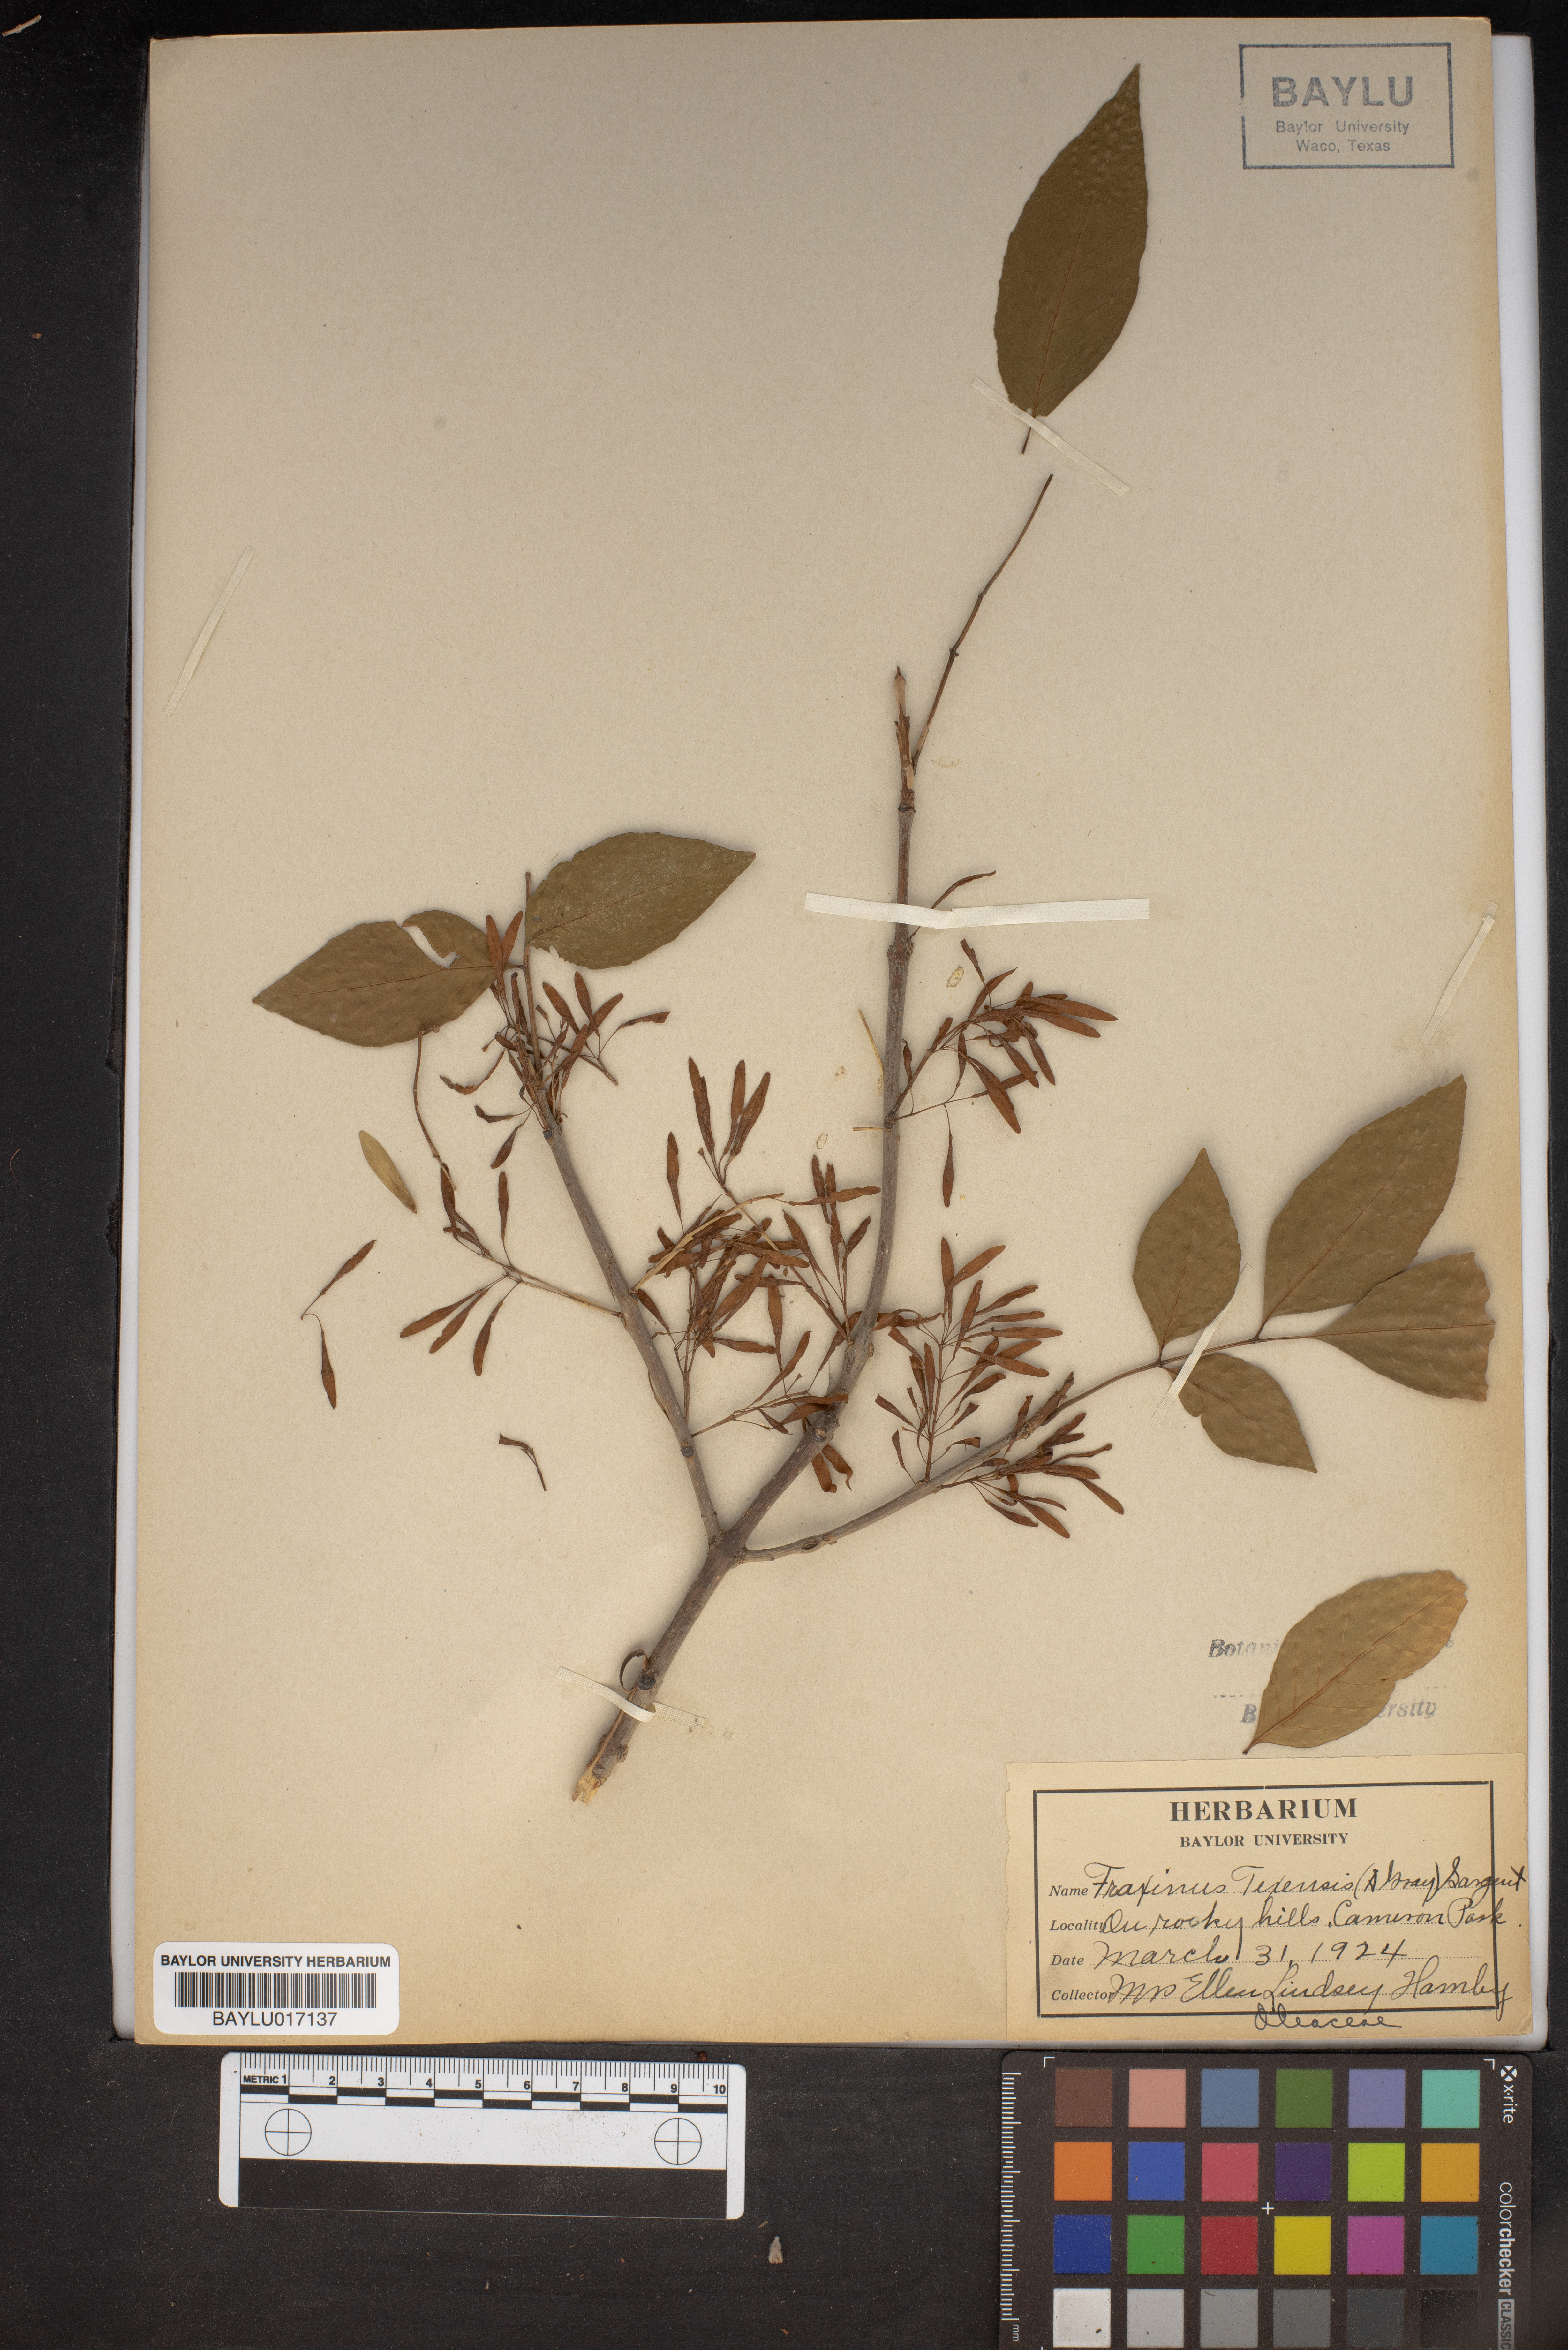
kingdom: Plantae
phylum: Tracheophyta
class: Magnoliopsida
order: Lamiales
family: Oleaceae
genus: Fraxinus
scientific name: Fraxinus albicans
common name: Texas ash
